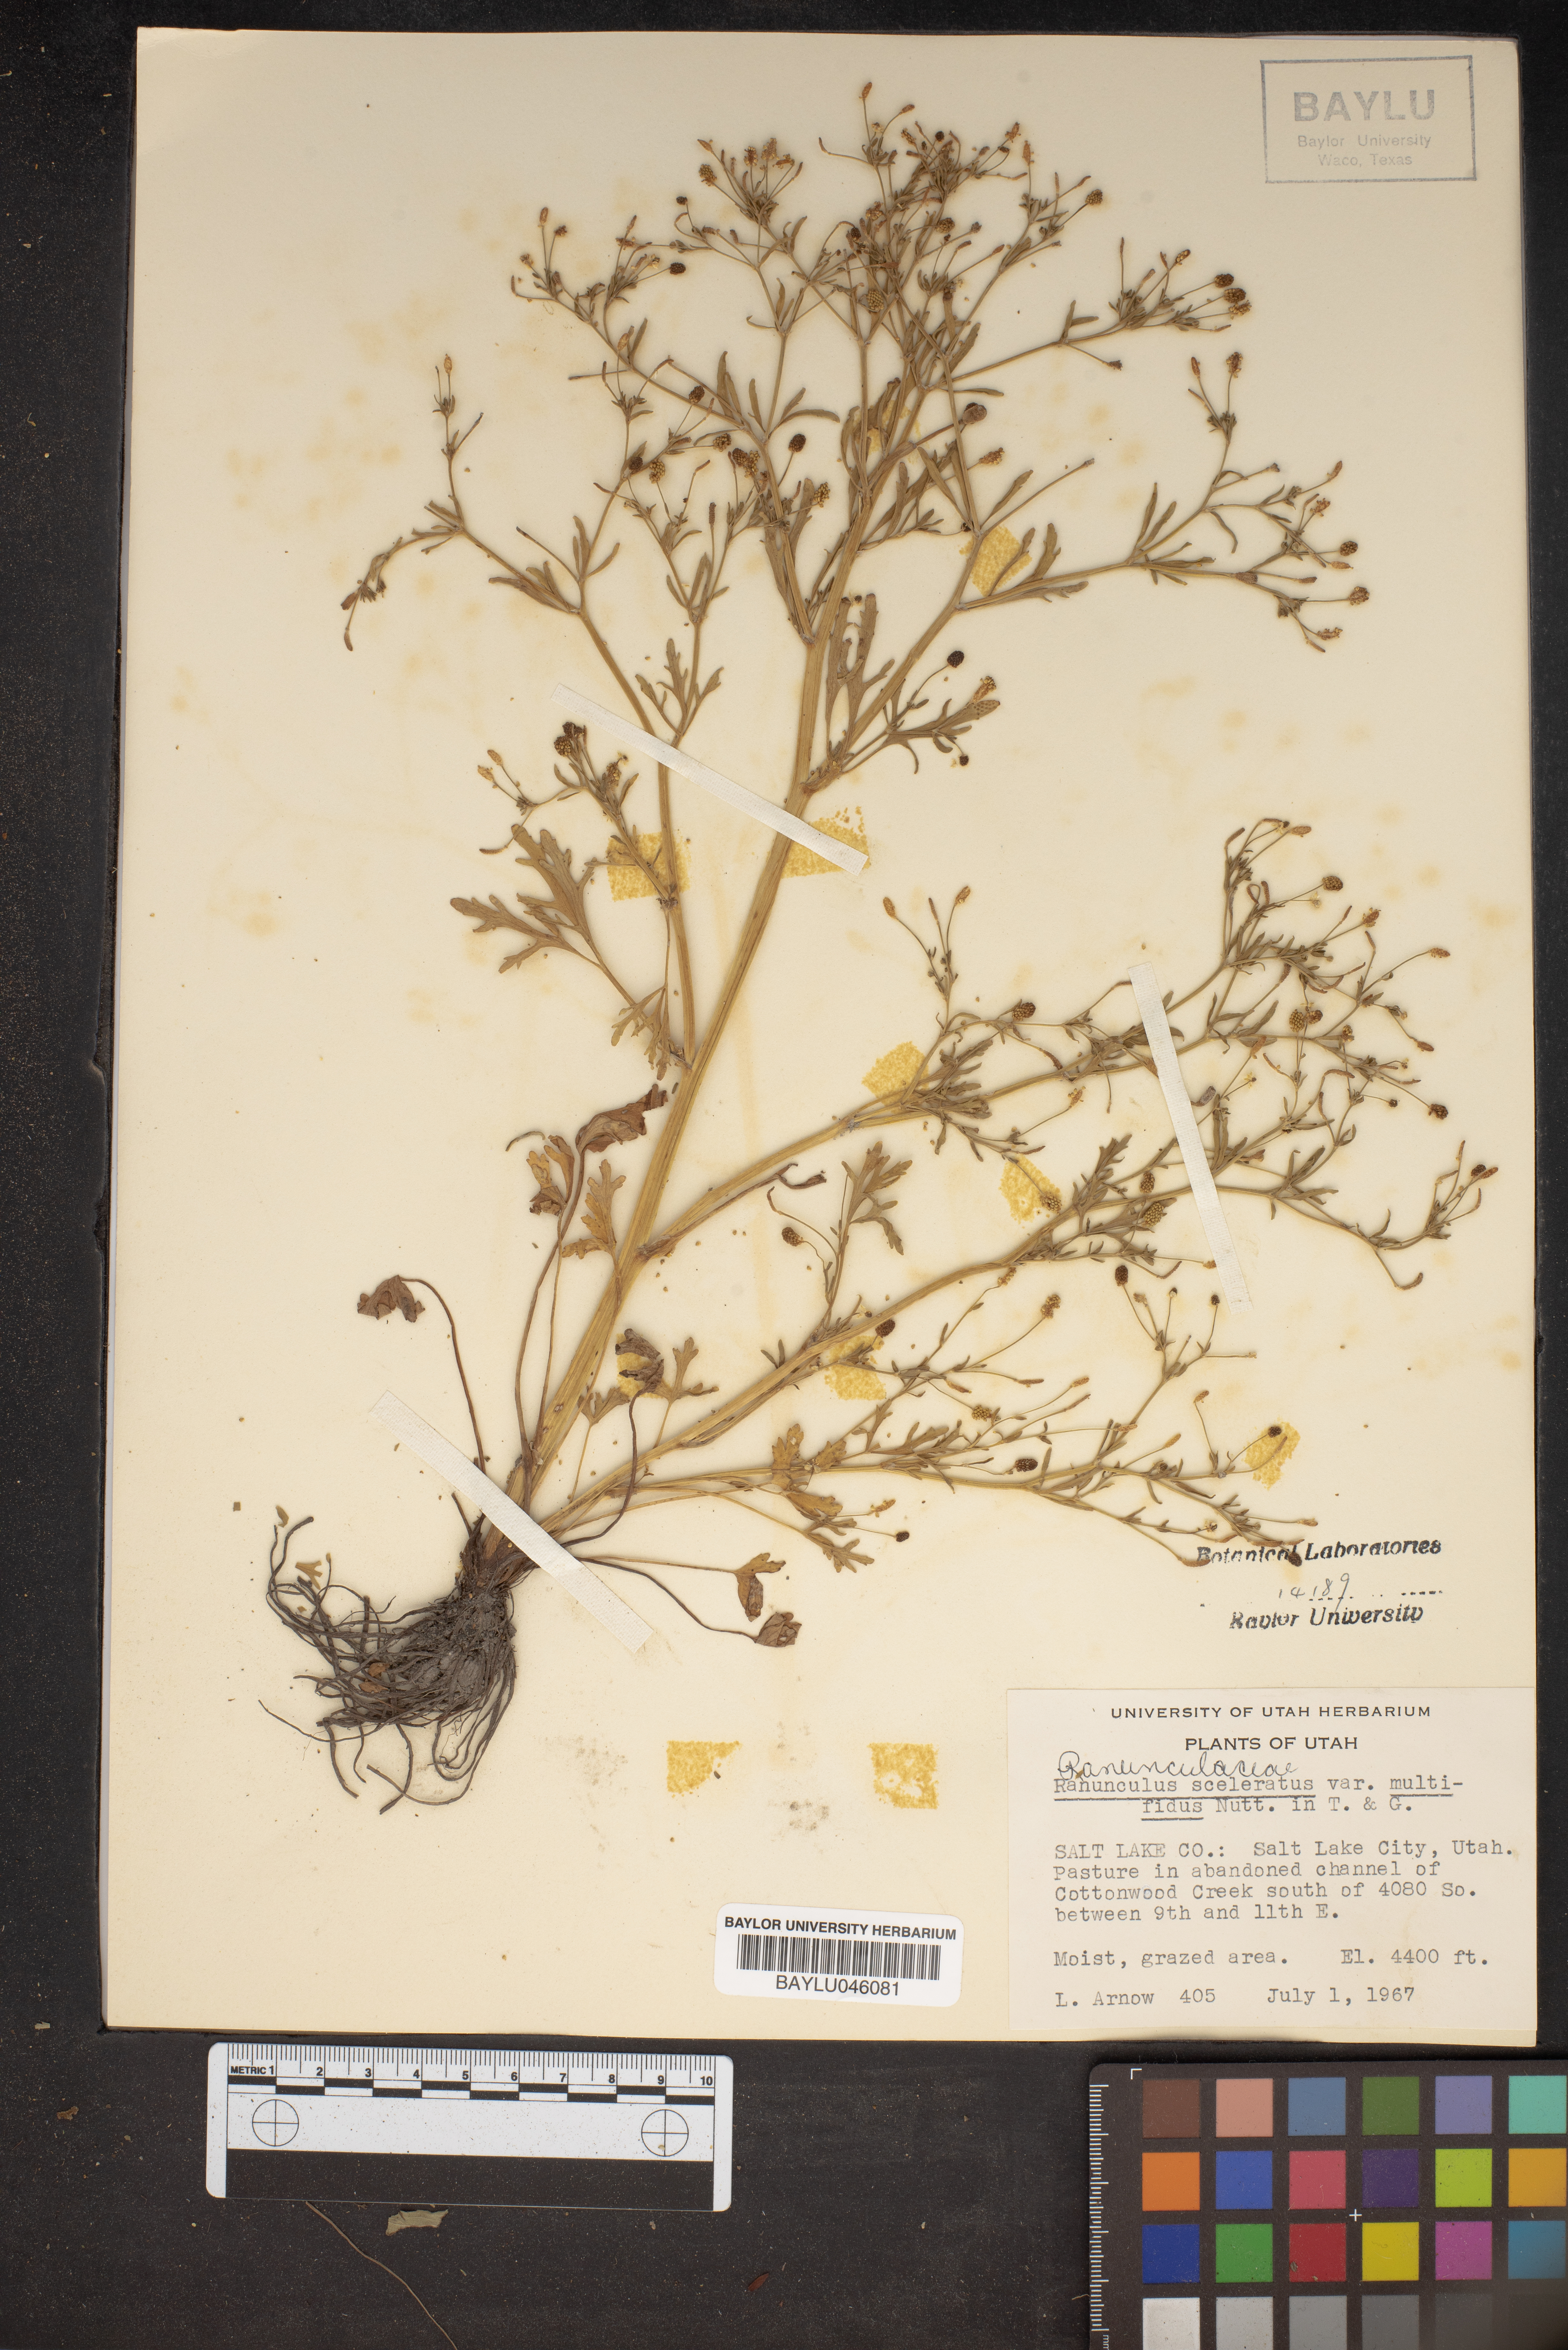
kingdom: Plantae
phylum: Tracheophyta
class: Magnoliopsida
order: Ranunculales
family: Ranunculaceae
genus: Ranunculus
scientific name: Ranunculus sceleratus
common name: Celery-leaved buttercup
